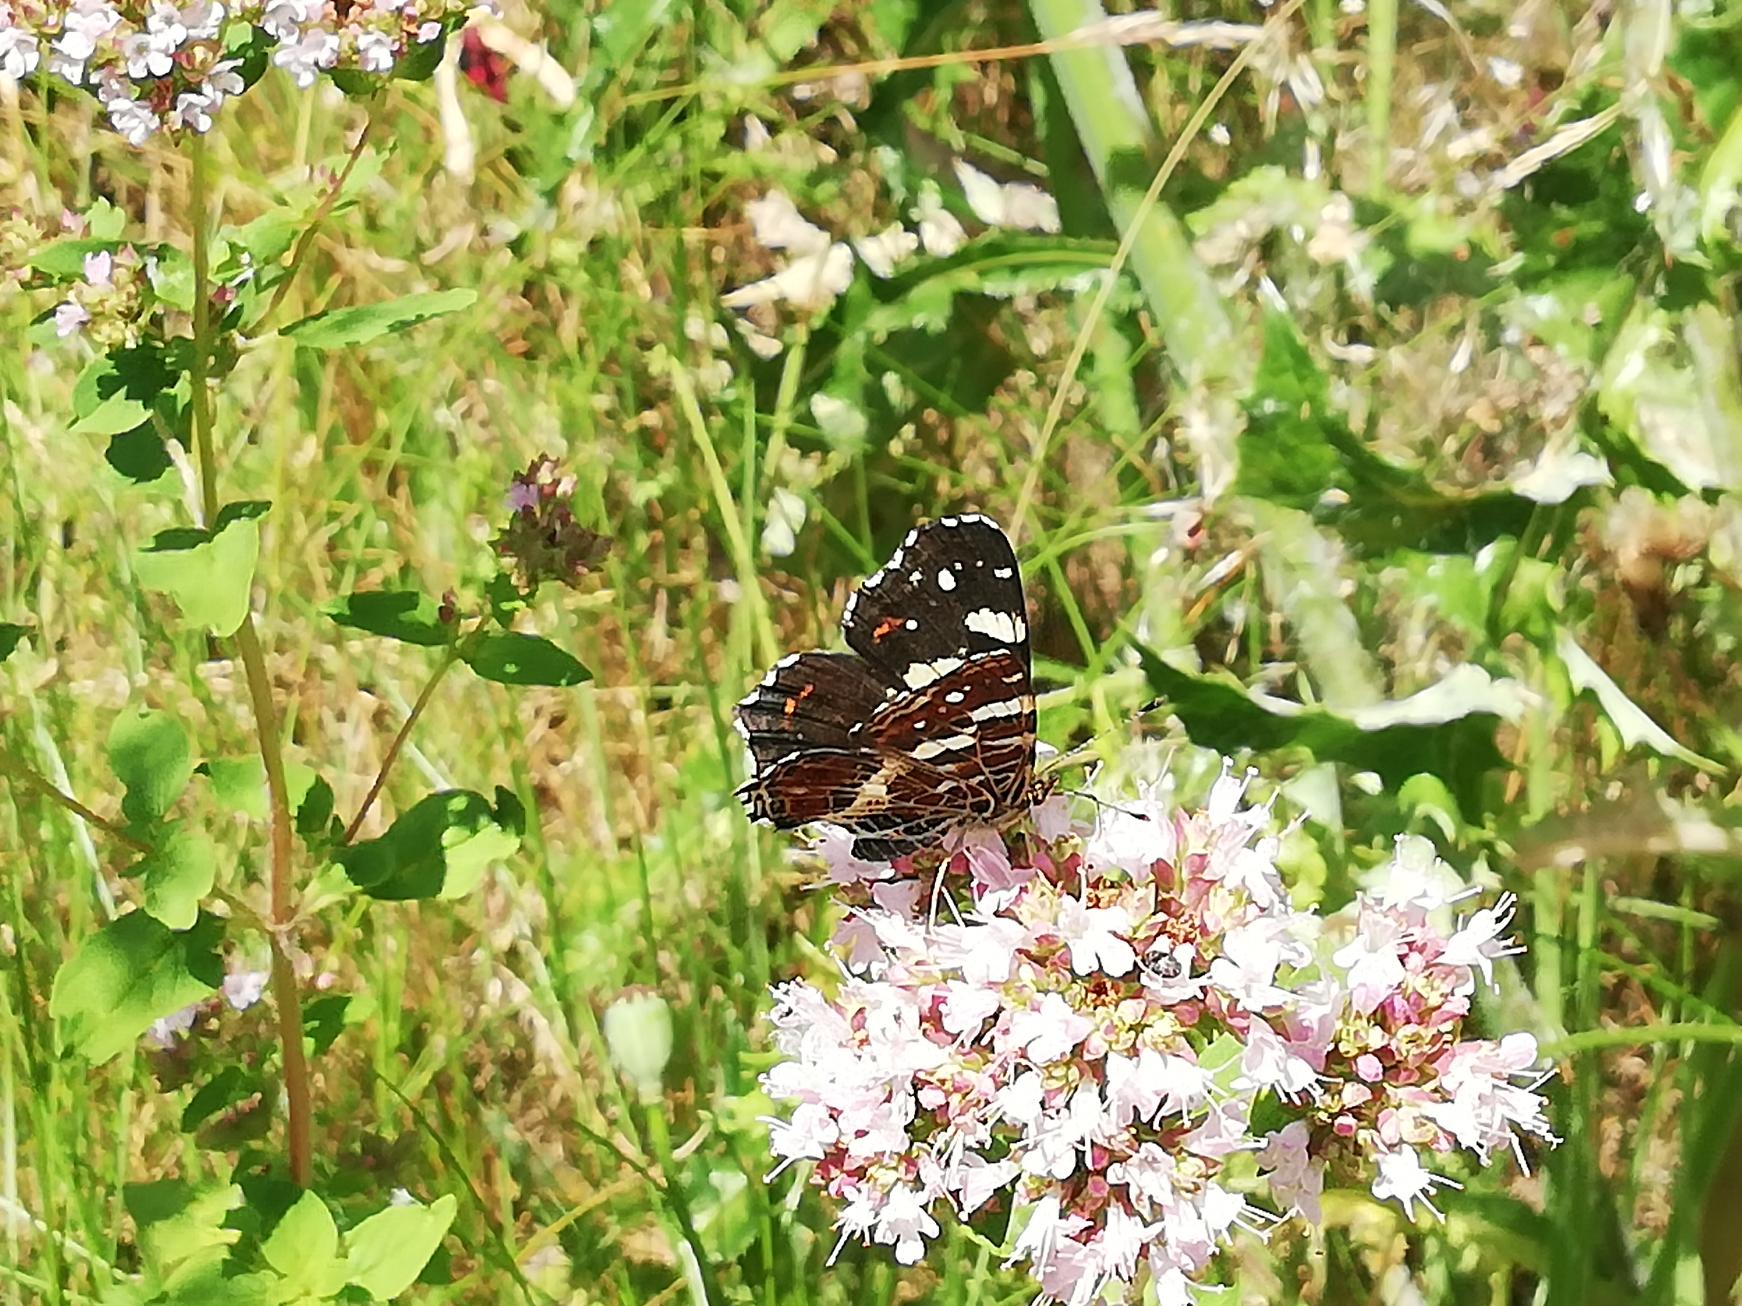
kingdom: Animalia
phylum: Arthropoda
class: Insecta
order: Lepidoptera
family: Nymphalidae
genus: Araschnia
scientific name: Araschnia levana
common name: Nældesommerfugl
